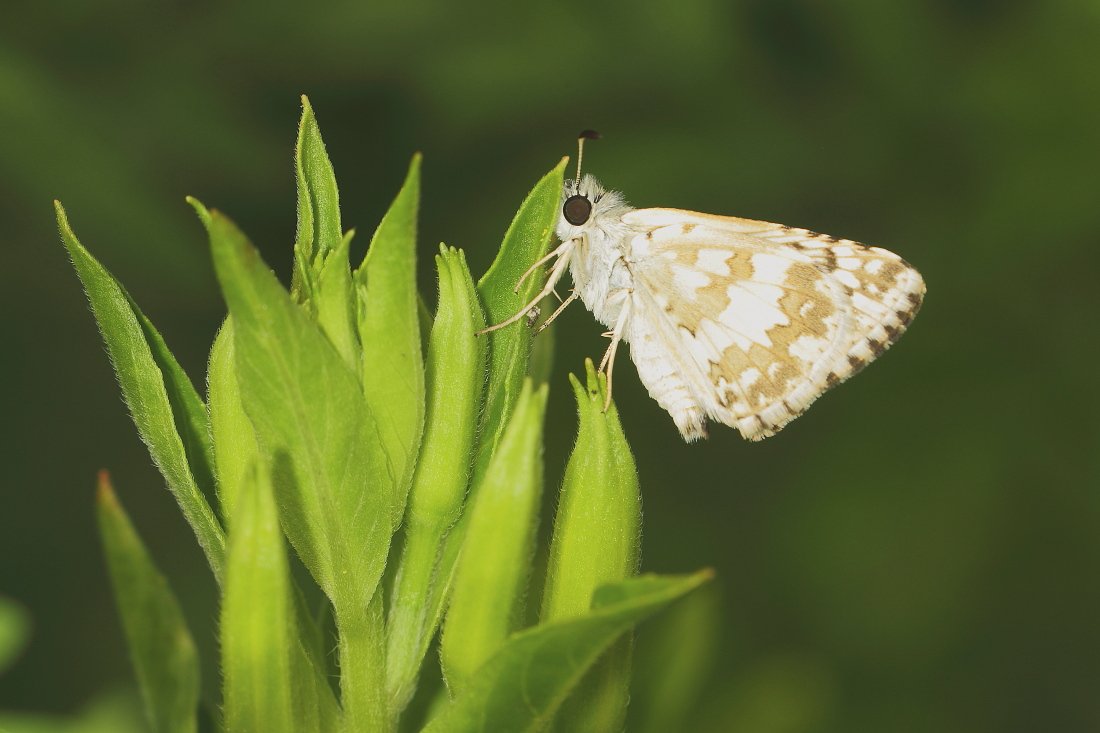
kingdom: Animalia
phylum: Arthropoda
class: Insecta
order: Lepidoptera
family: Hesperiidae
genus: Pyrgus
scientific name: Pyrgus communis
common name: Common Checkered-Skipper
